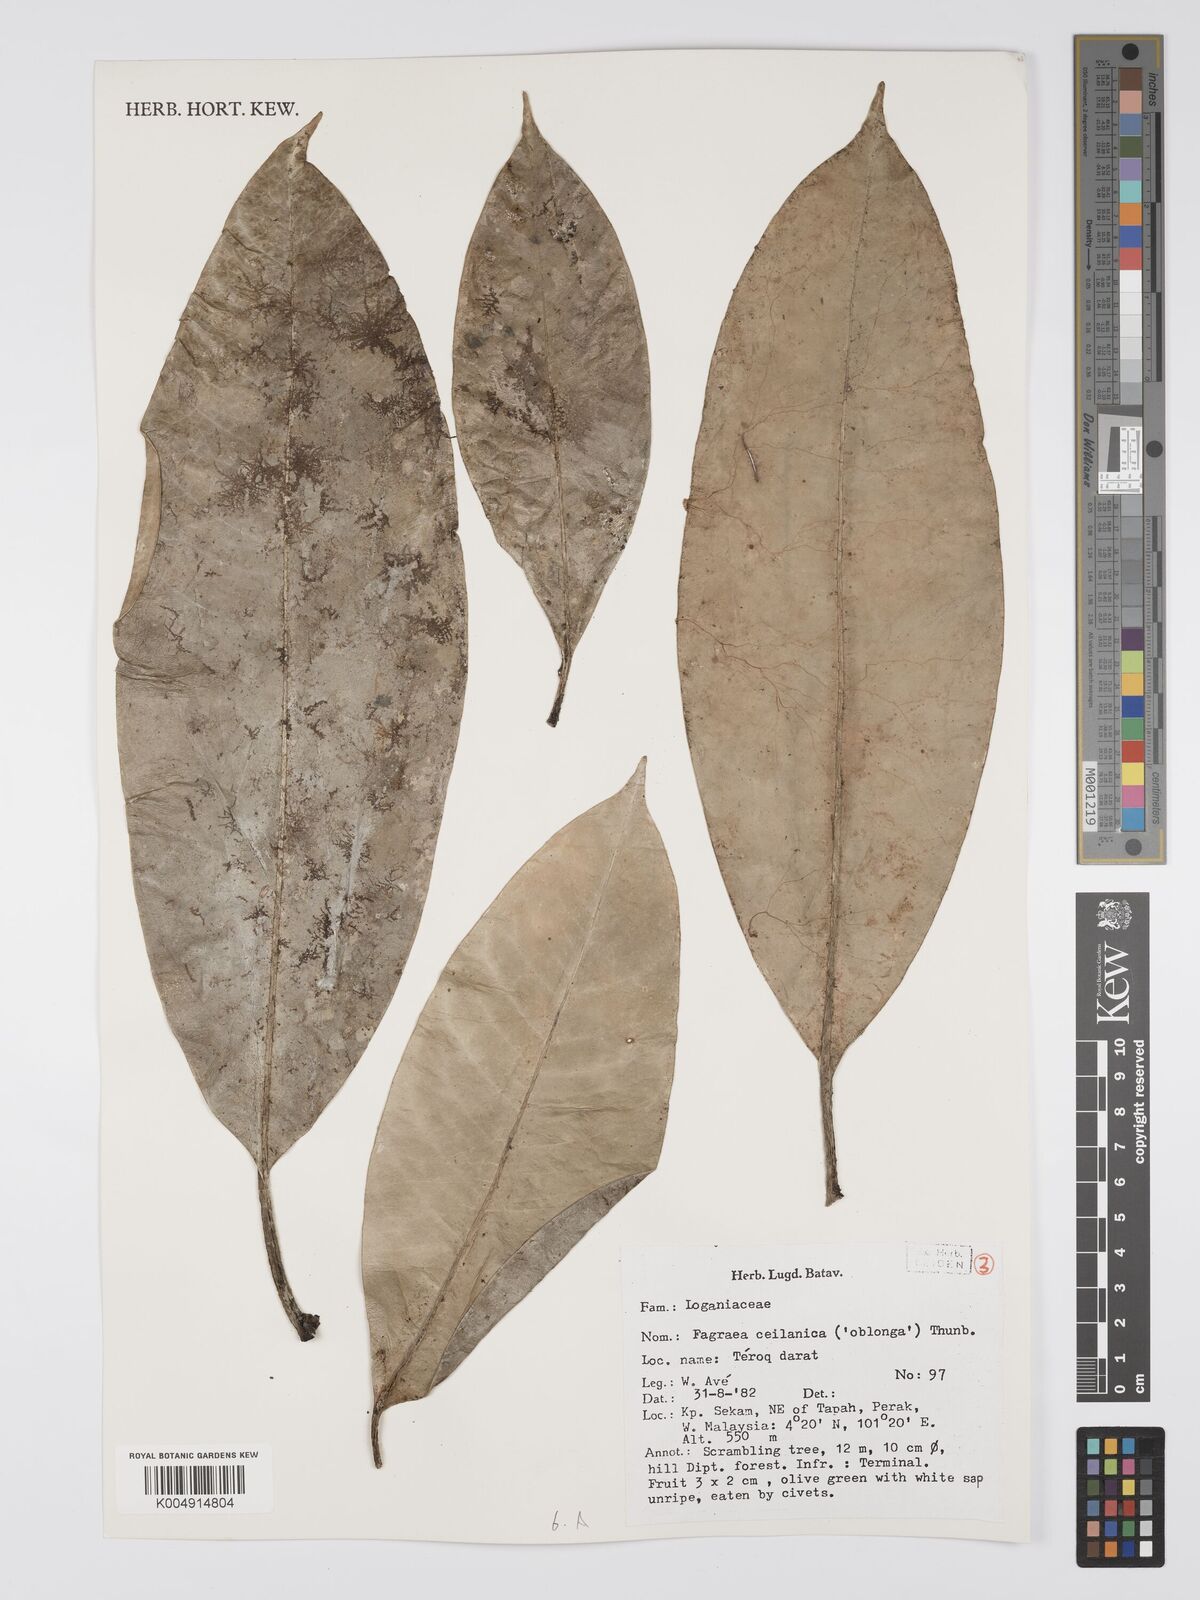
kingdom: Plantae
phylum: Tracheophyta
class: Magnoliopsida
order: Gentianales
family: Gentianaceae
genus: Fagraea
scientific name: Fagraea oblonga
